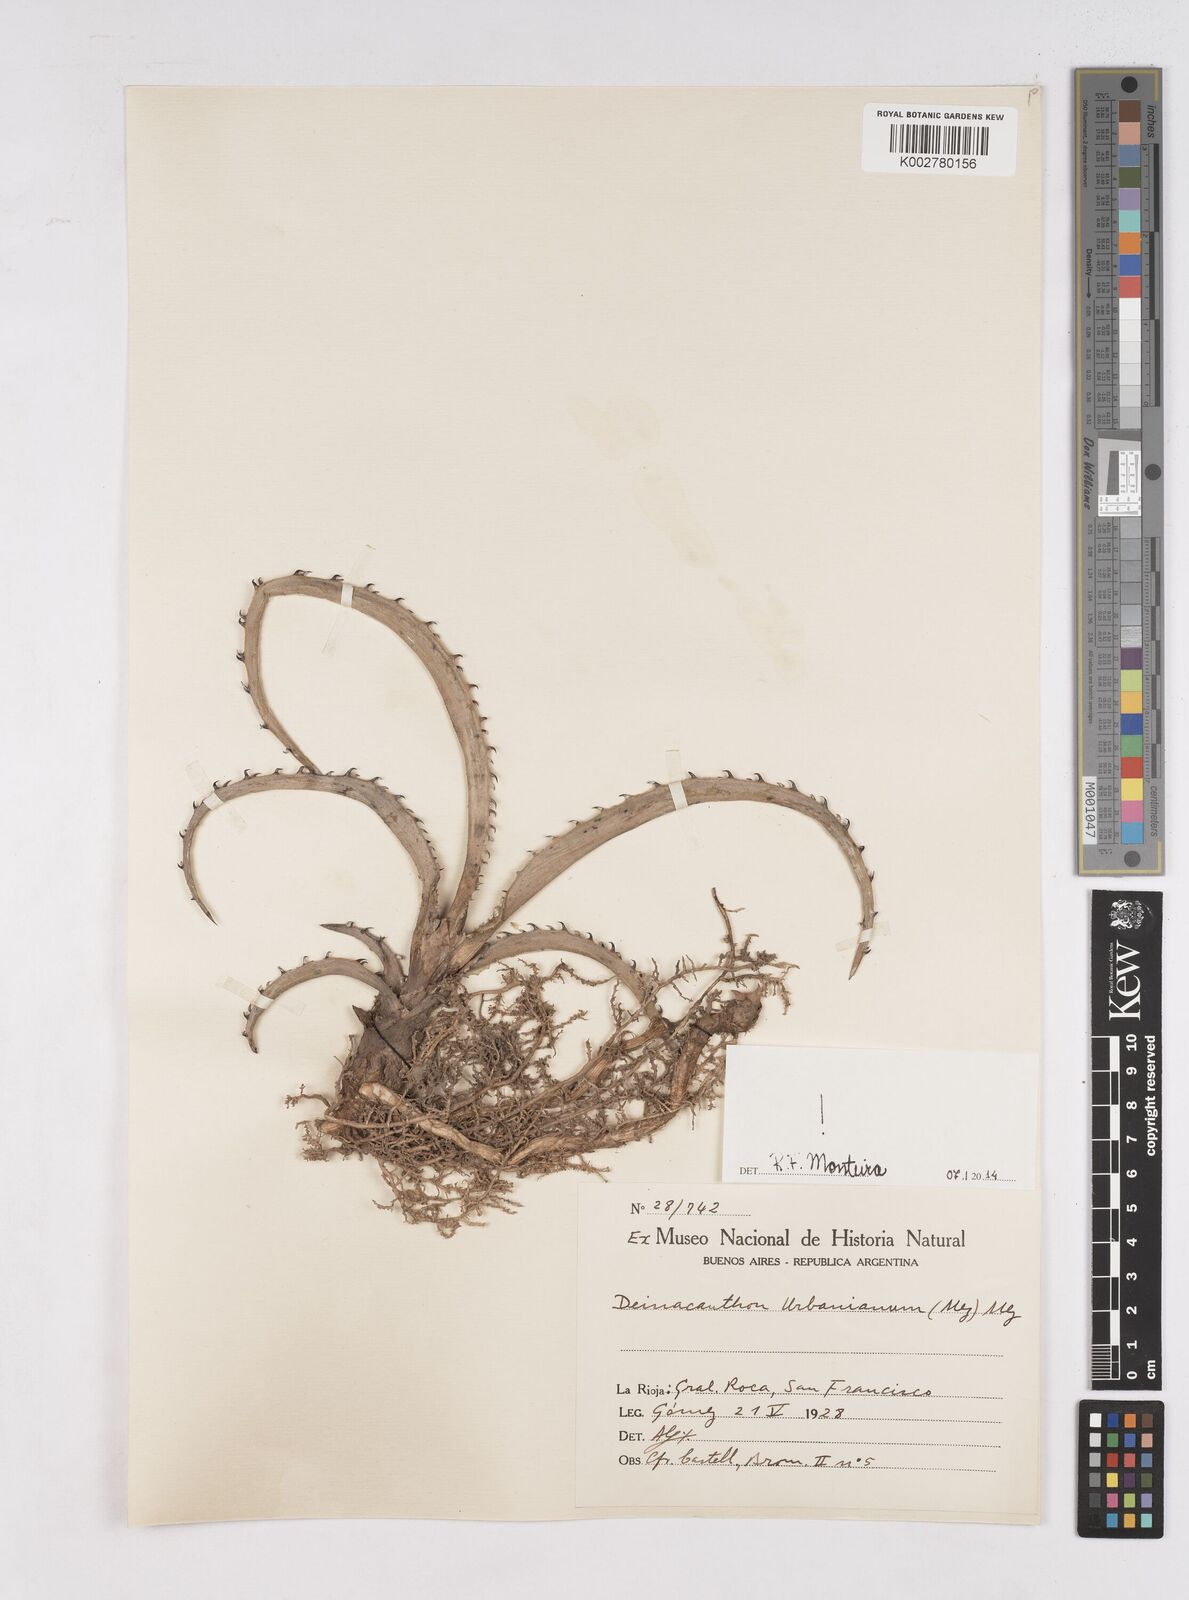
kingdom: Plantae
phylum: Tracheophyta
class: Liliopsida
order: Poales
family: Bromeliaceae
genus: Deinacanthon
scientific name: Deinacanthon urbanianum
